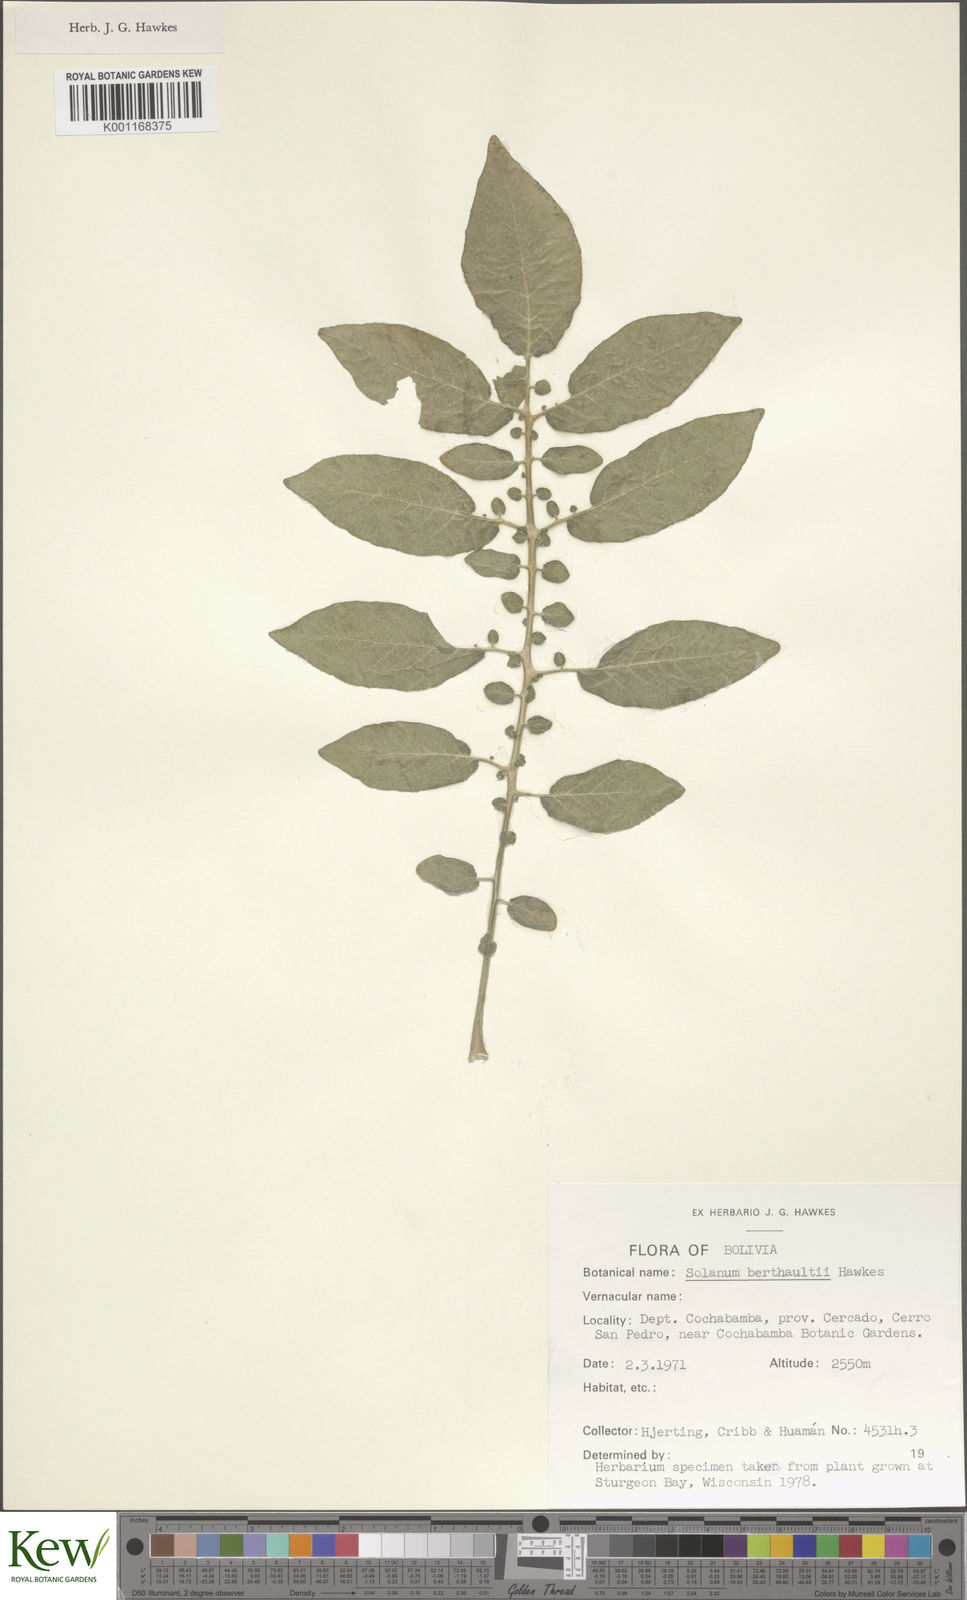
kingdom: Plantae
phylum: Tracheophyta
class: Magnoliopsida
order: Solanales
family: Solanaceae
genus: Solanum
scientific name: Solanum berthaultii
